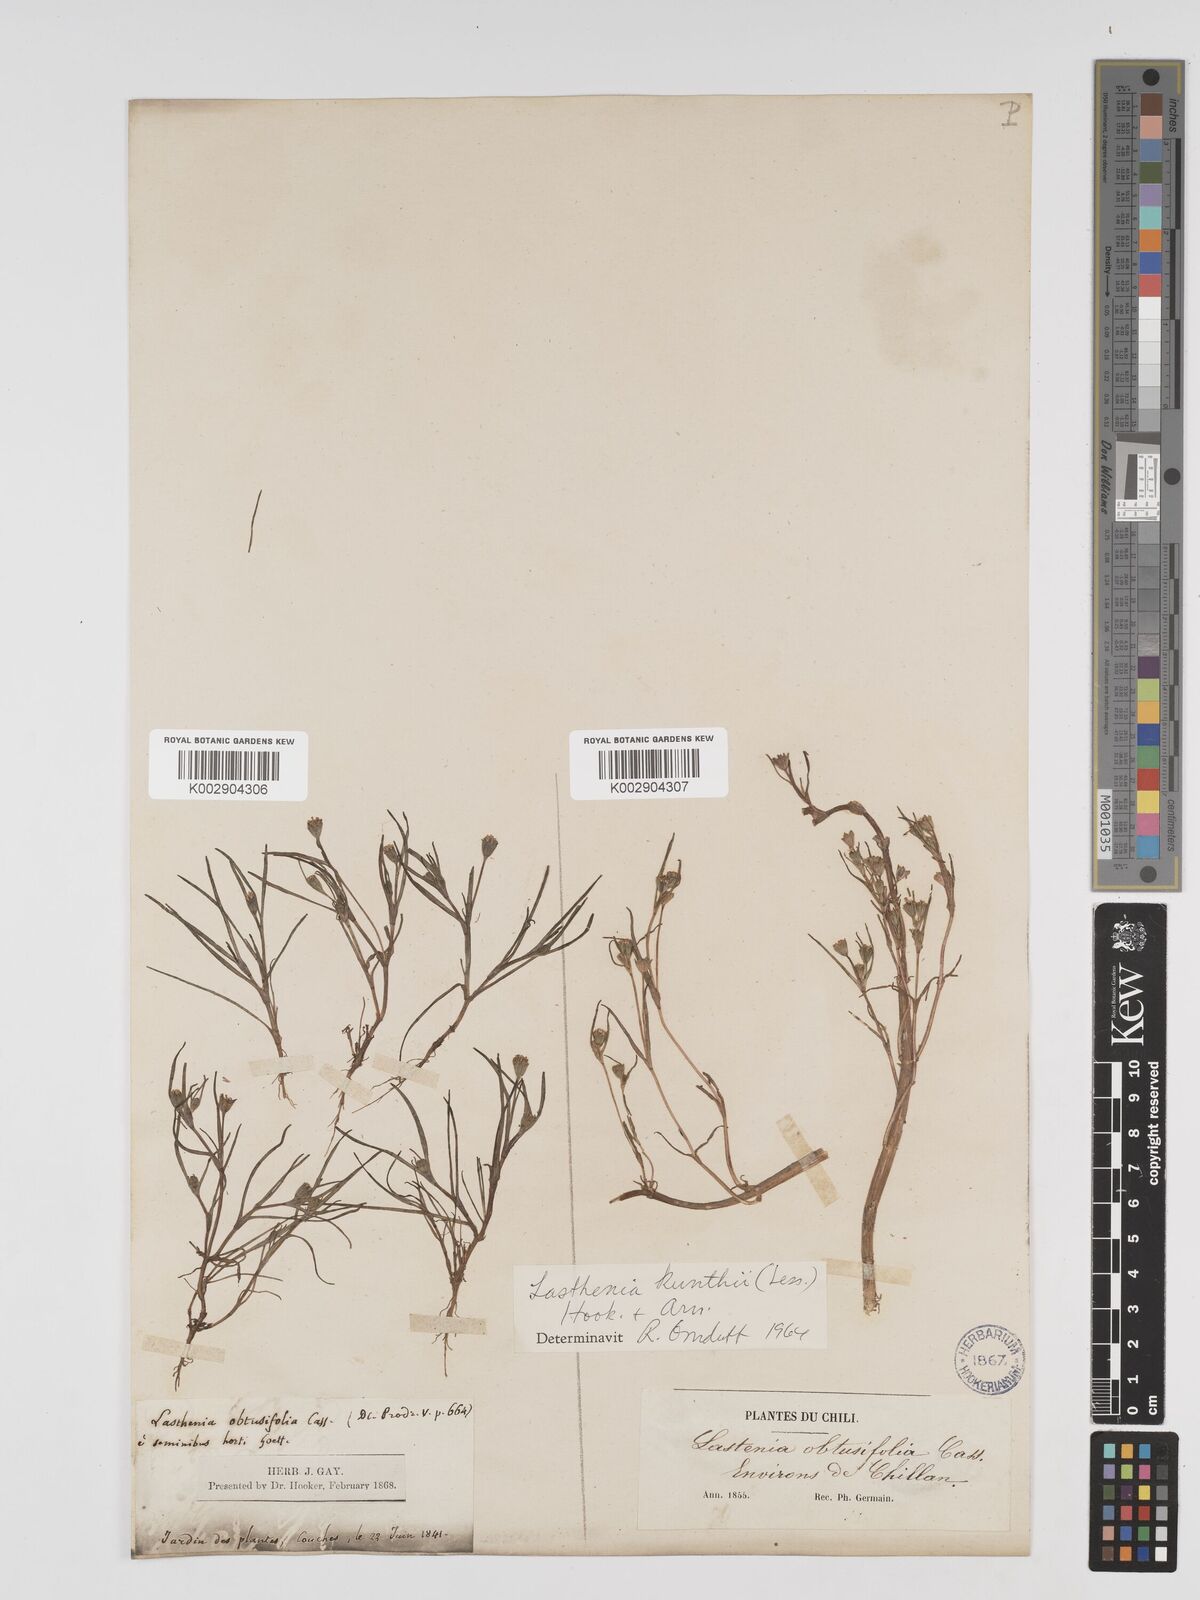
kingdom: Plantae
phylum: Tracheophyta
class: Magnoliopsida
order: Asterales
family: Asteraceae
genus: Lasthenia
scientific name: Lasthenia kunthii
